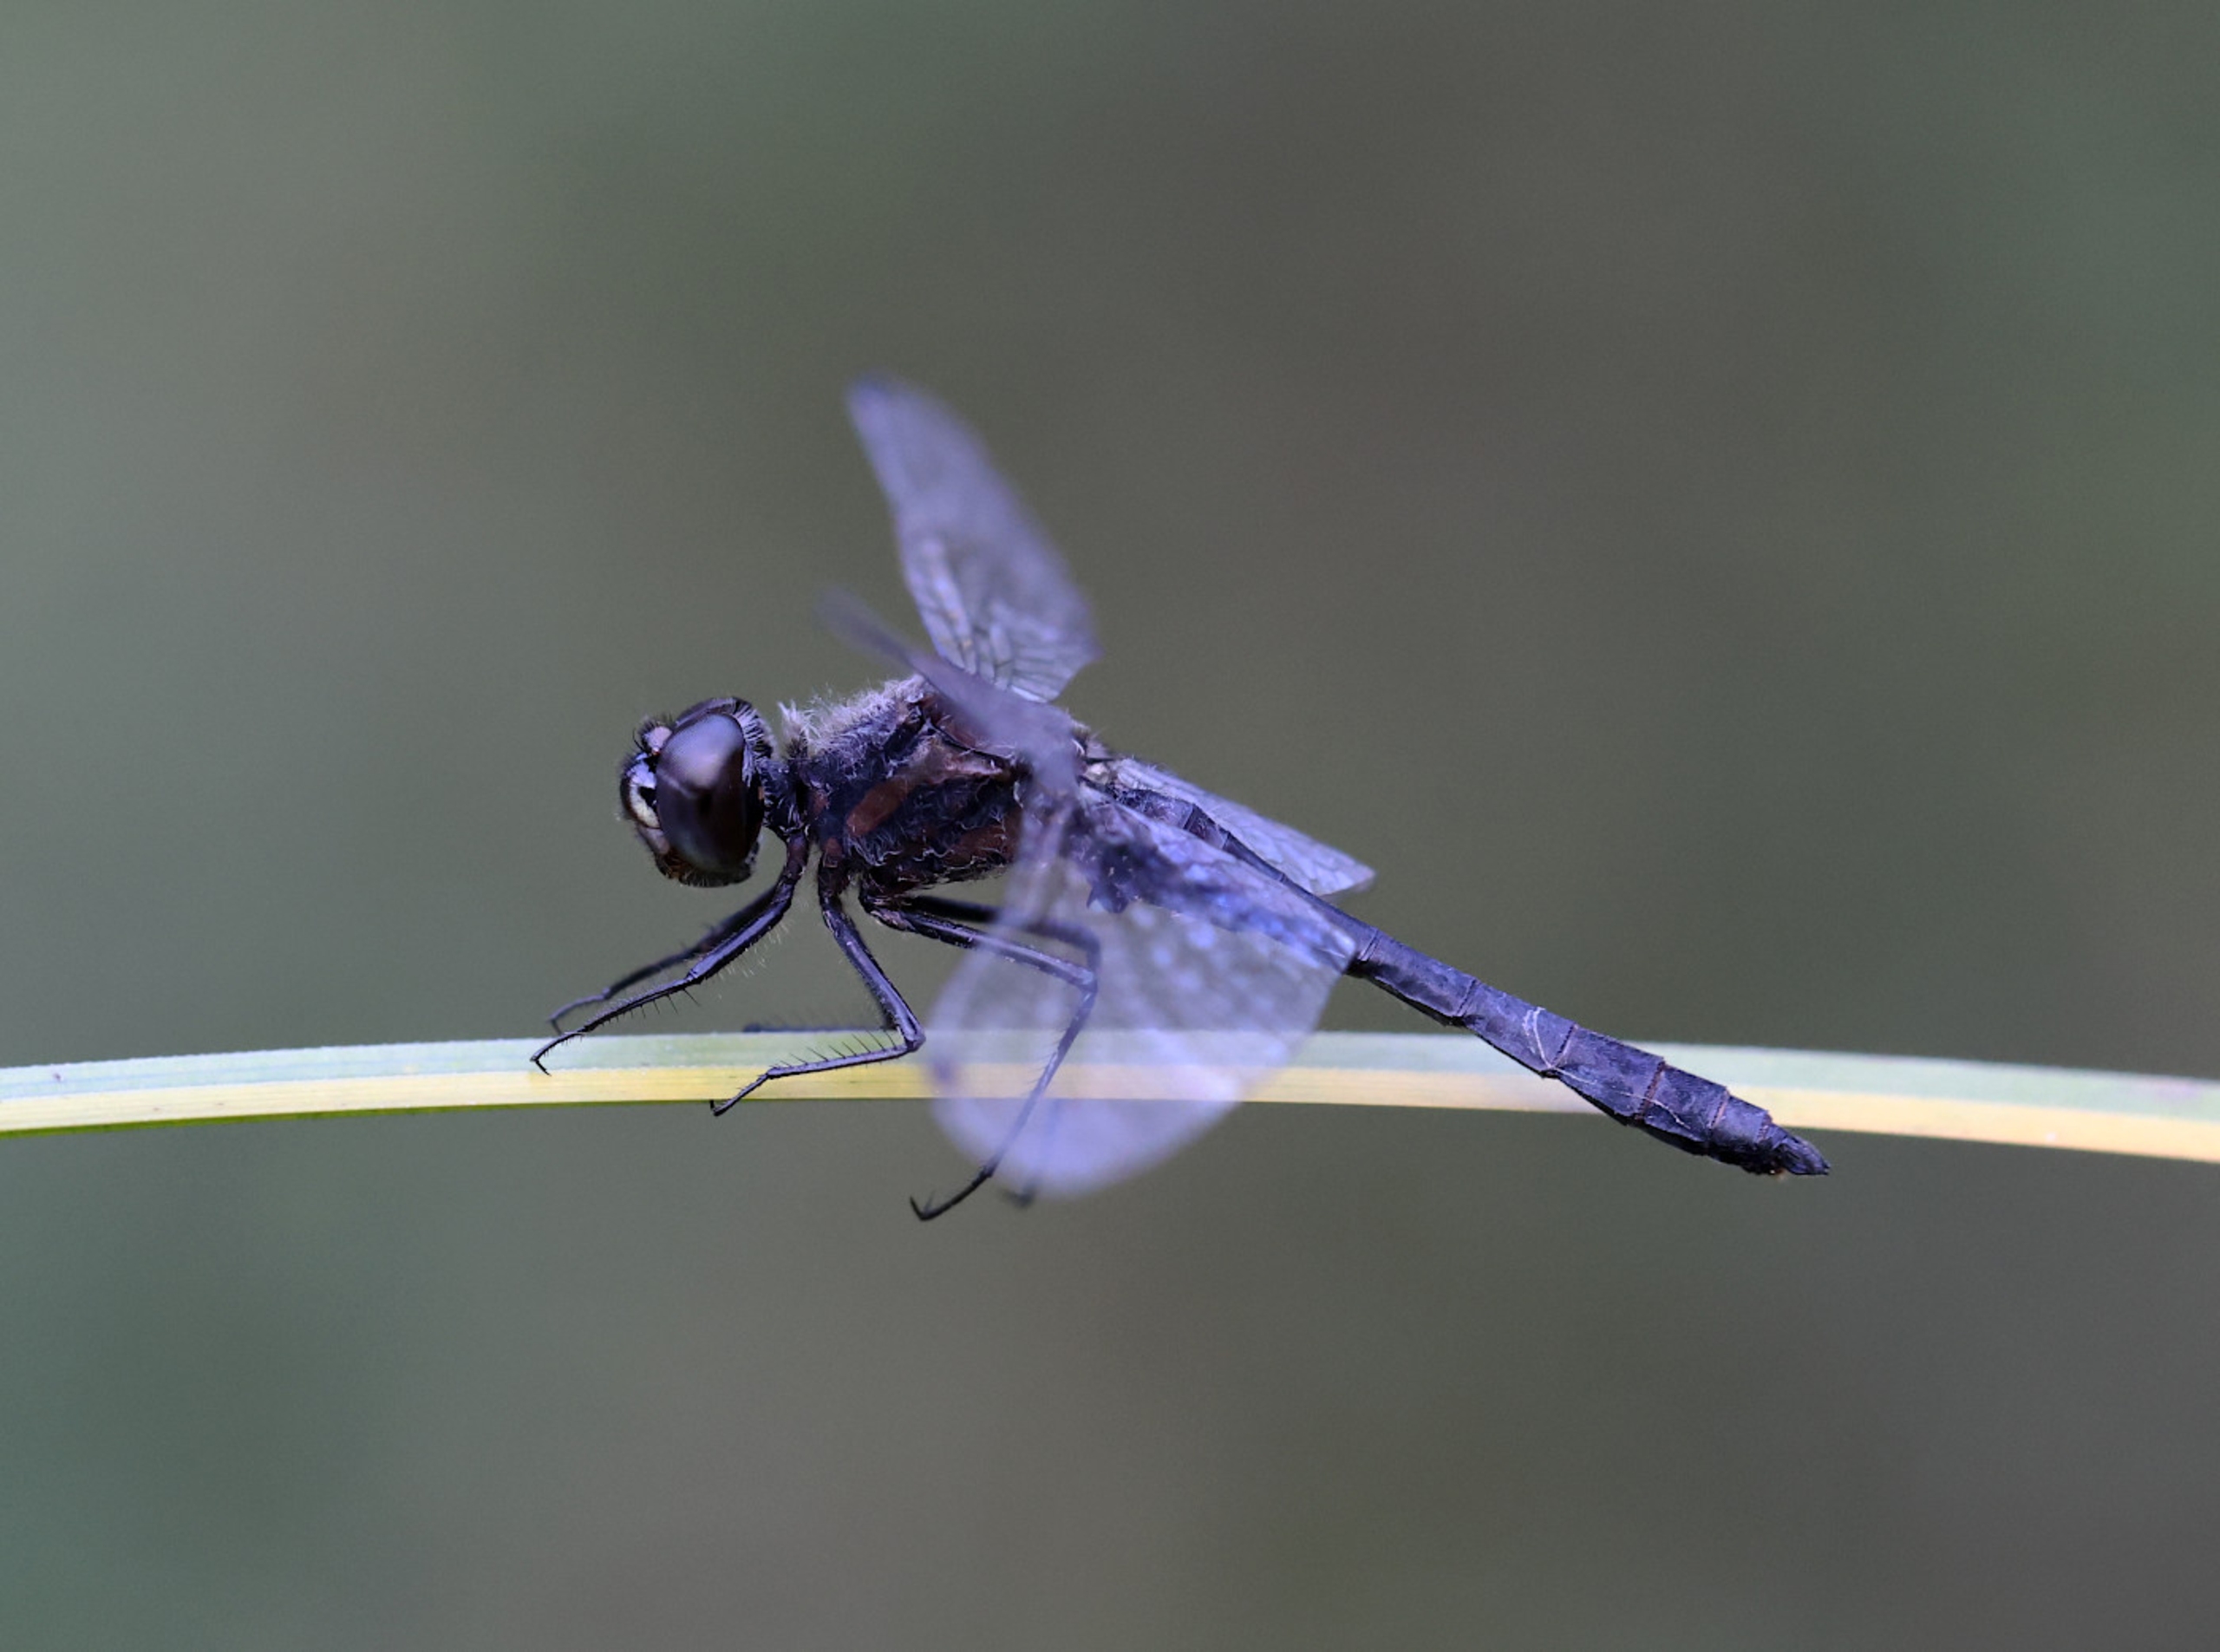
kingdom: Animalia
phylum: Arthropoda
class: Insecta
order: Odonata
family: Libellulidae
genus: Sympetrum
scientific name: Sympetrum danae
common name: Sort hedelibel
